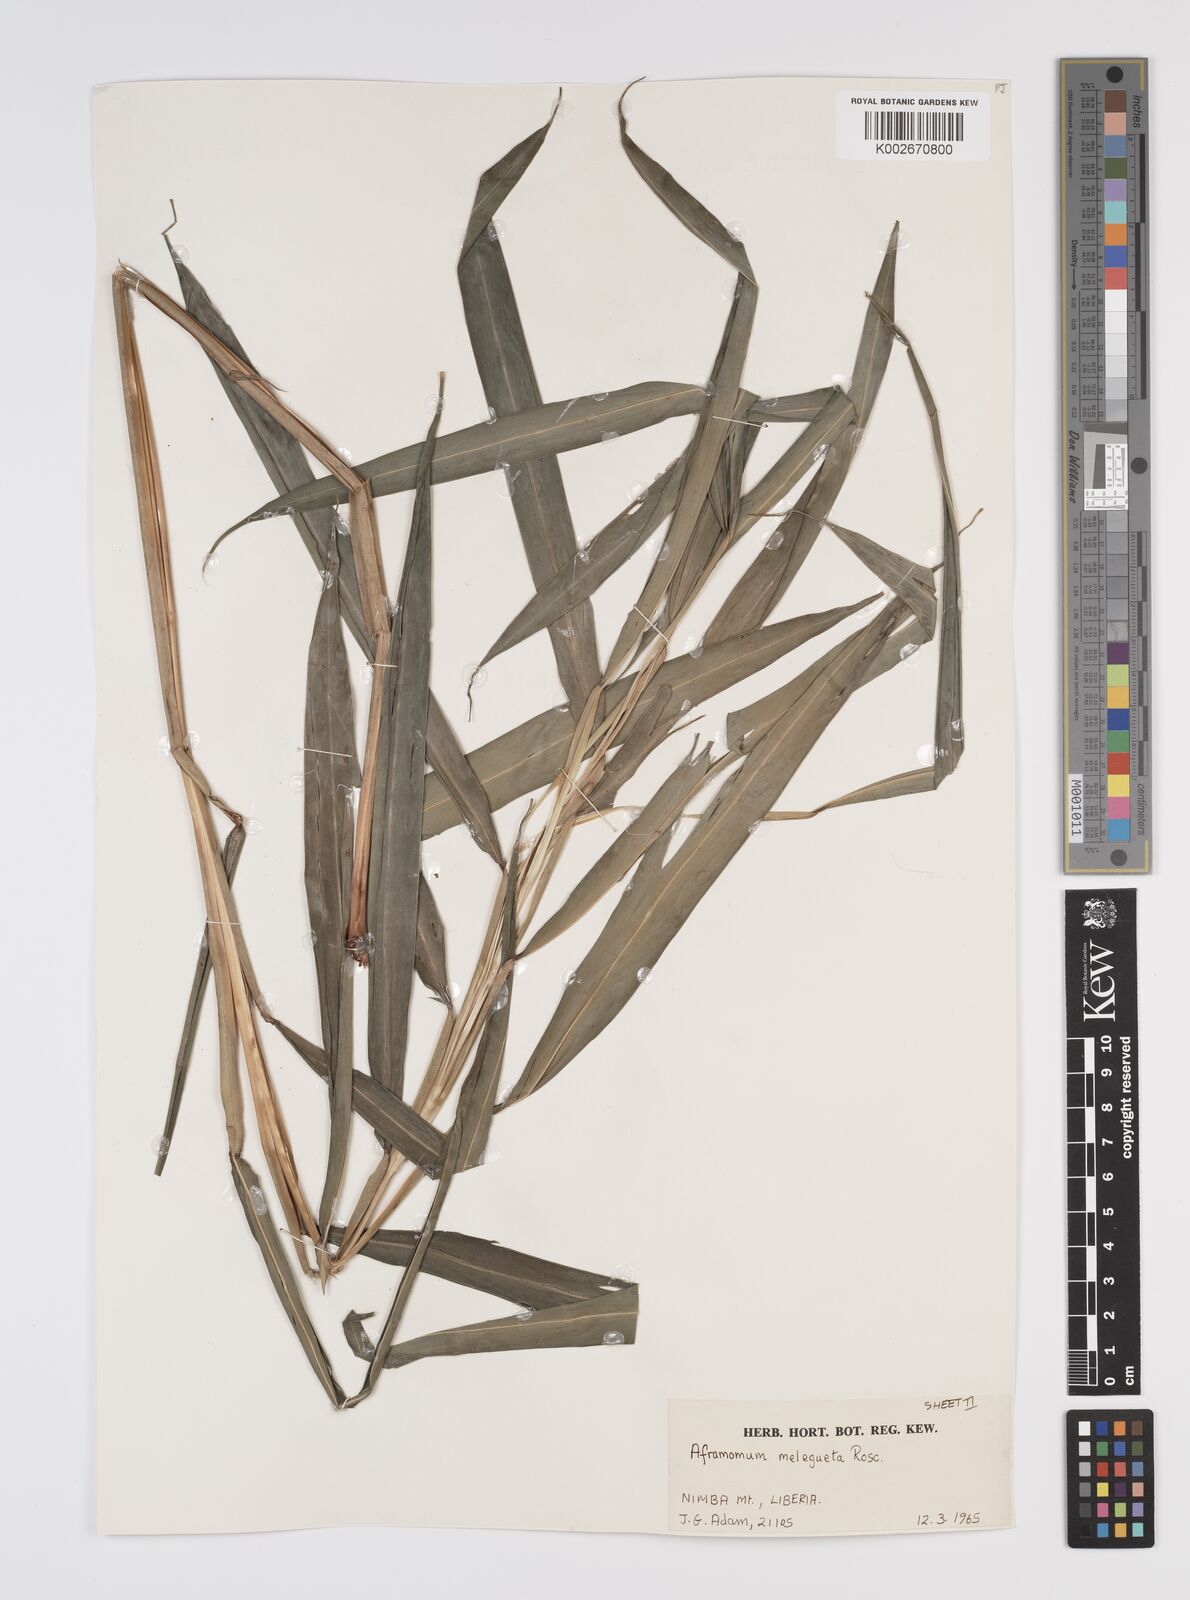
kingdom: Plantae
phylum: Tracheophyta
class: Liliopsida
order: Zingiberales
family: Zingiberaceae
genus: Aframomum
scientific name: Aframomum melegueta
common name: Grains of paradise
